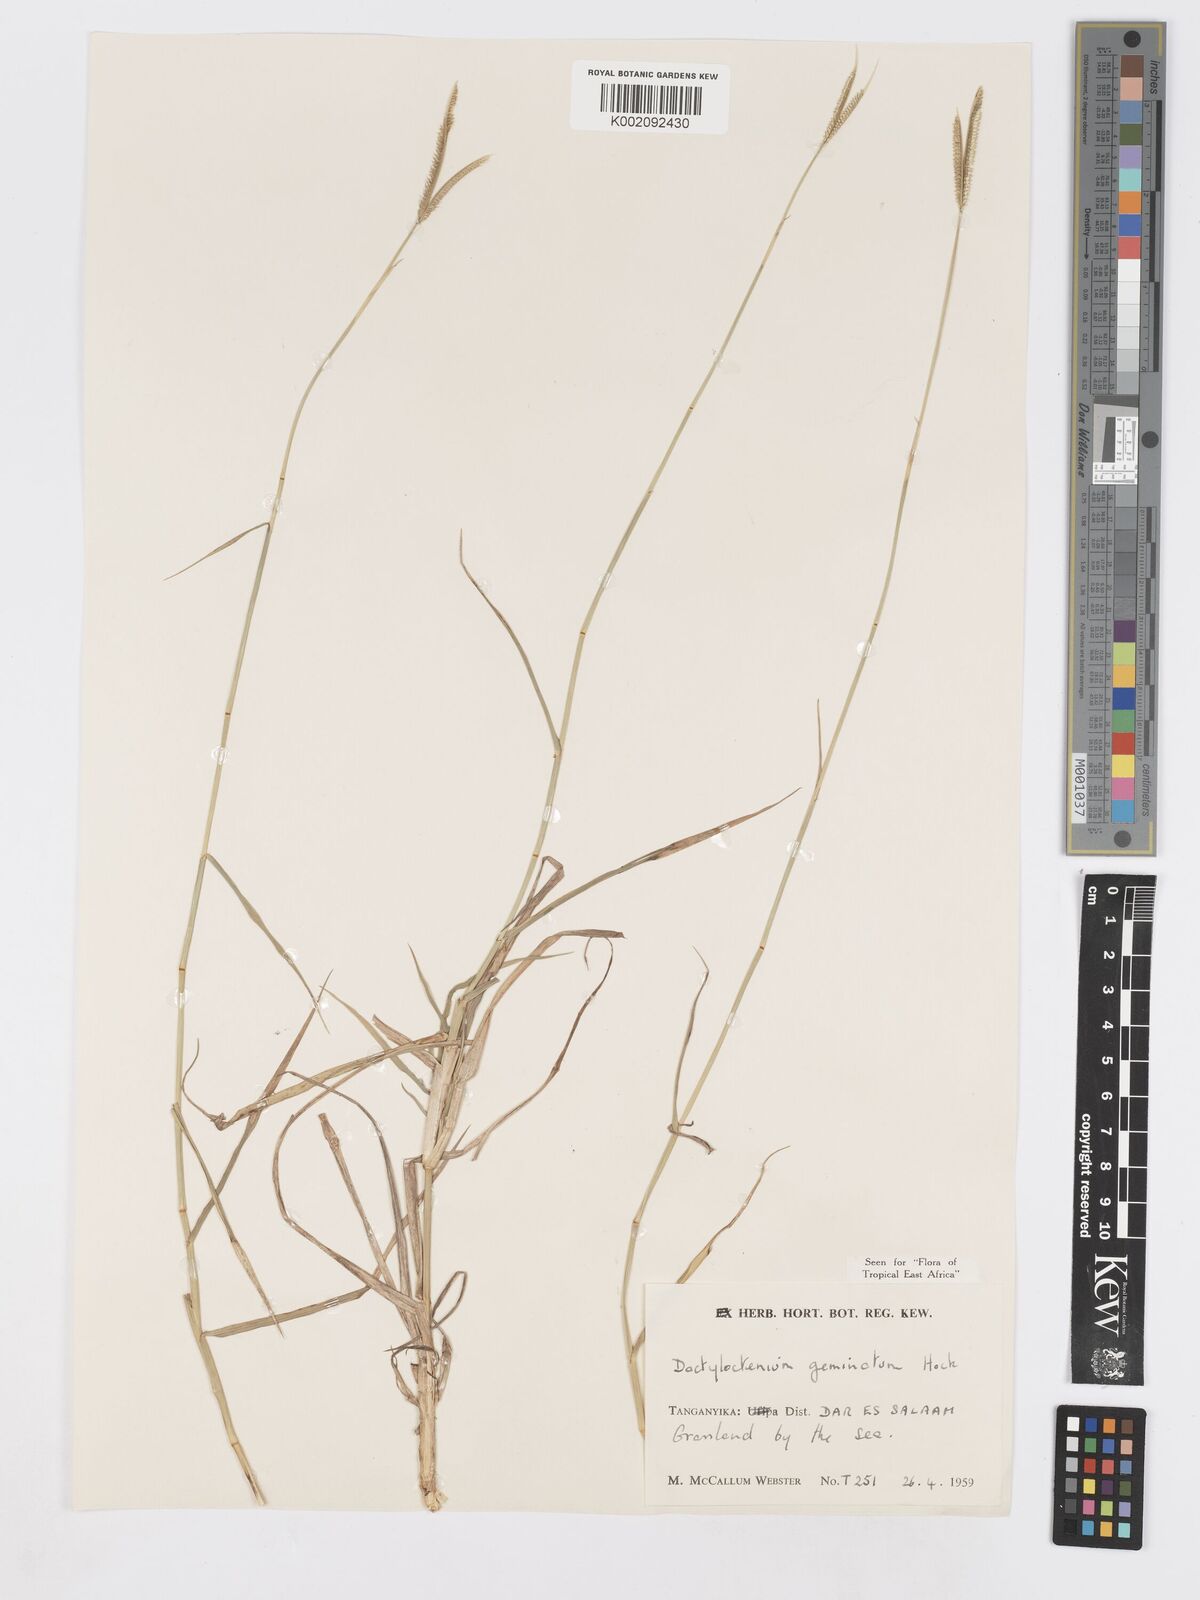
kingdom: Plantae
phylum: Tracheophyta
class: Liliopsida
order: Poales
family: Poaceae
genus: Dactyloctenium
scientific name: Dactyloctenium geminatum
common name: Crowsfoot grass
